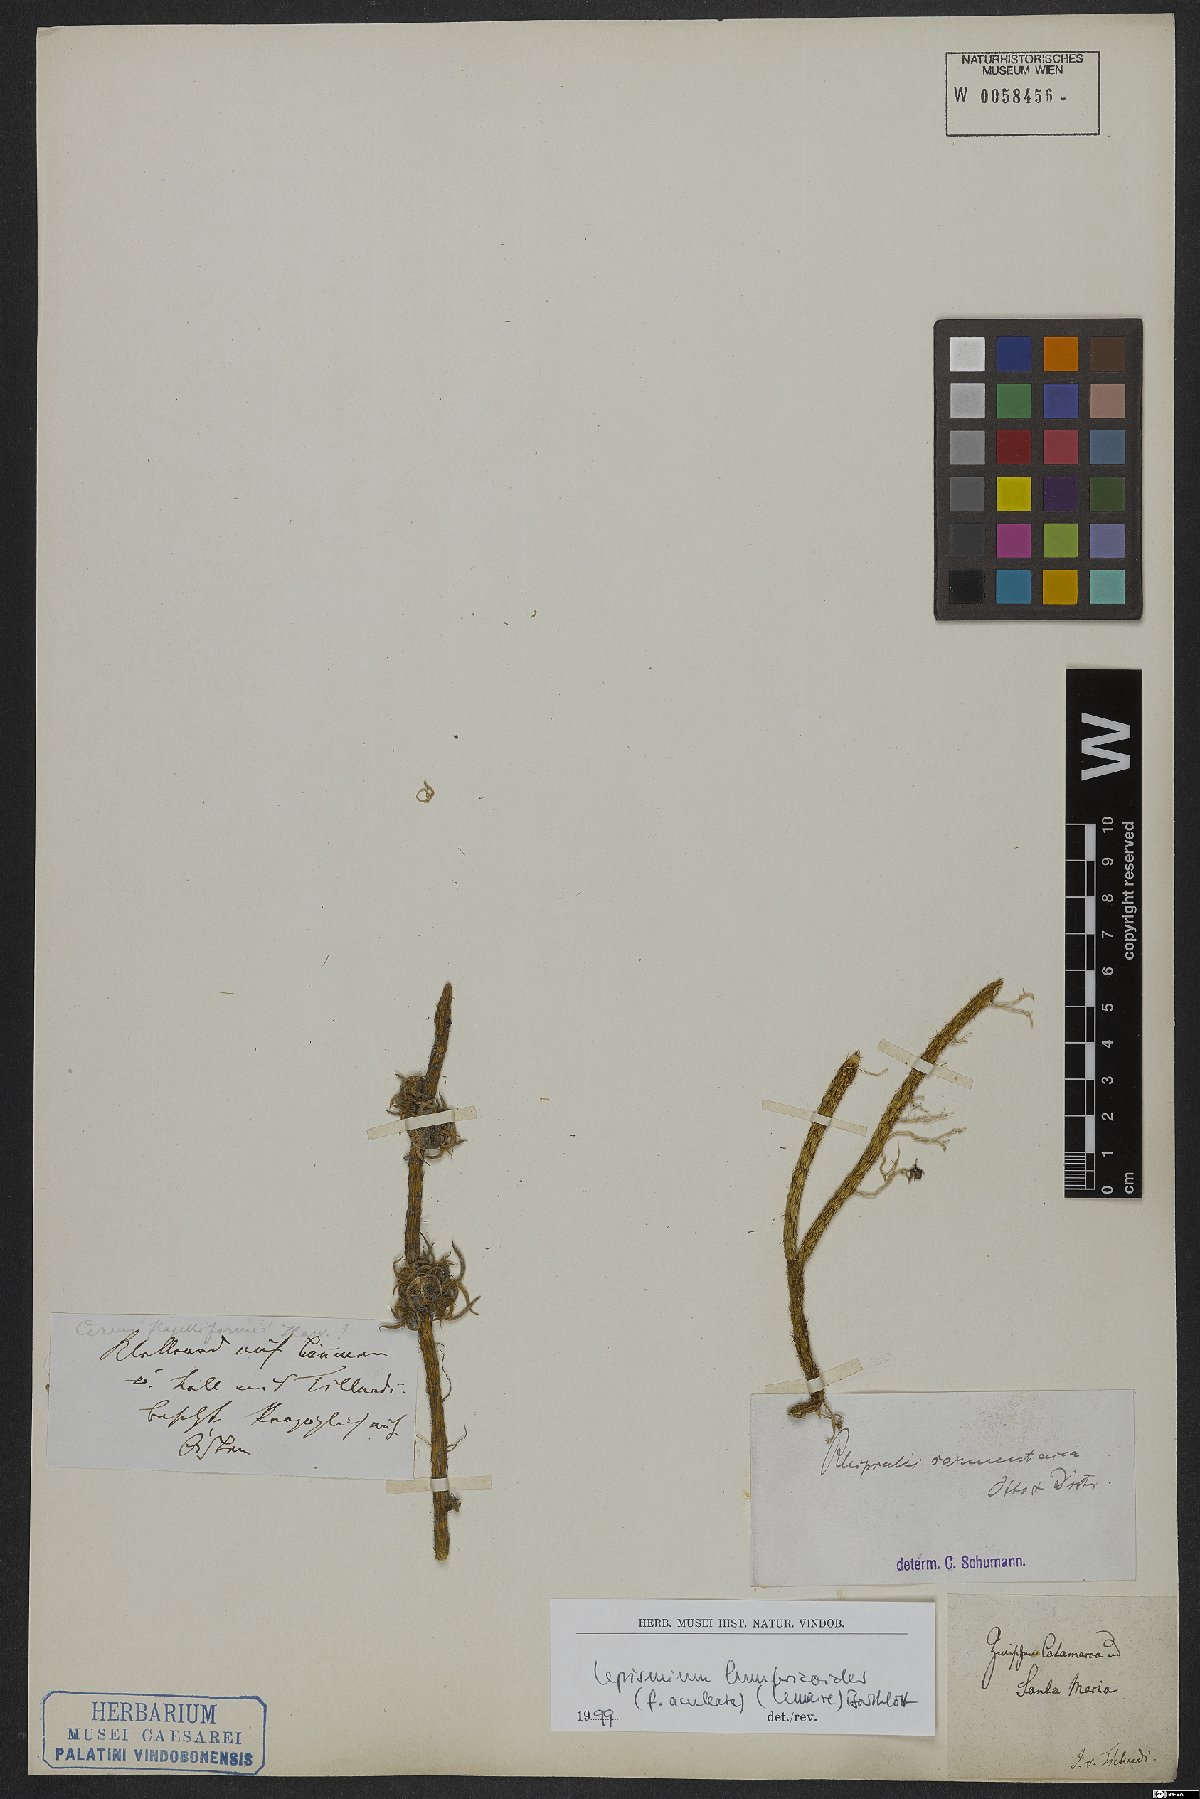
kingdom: Plantae
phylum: Tracheophyta
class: Magnoliopsida
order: Caryophyllales
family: Cactaceae
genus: Lepismium
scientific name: Lepismium lumbricoides
